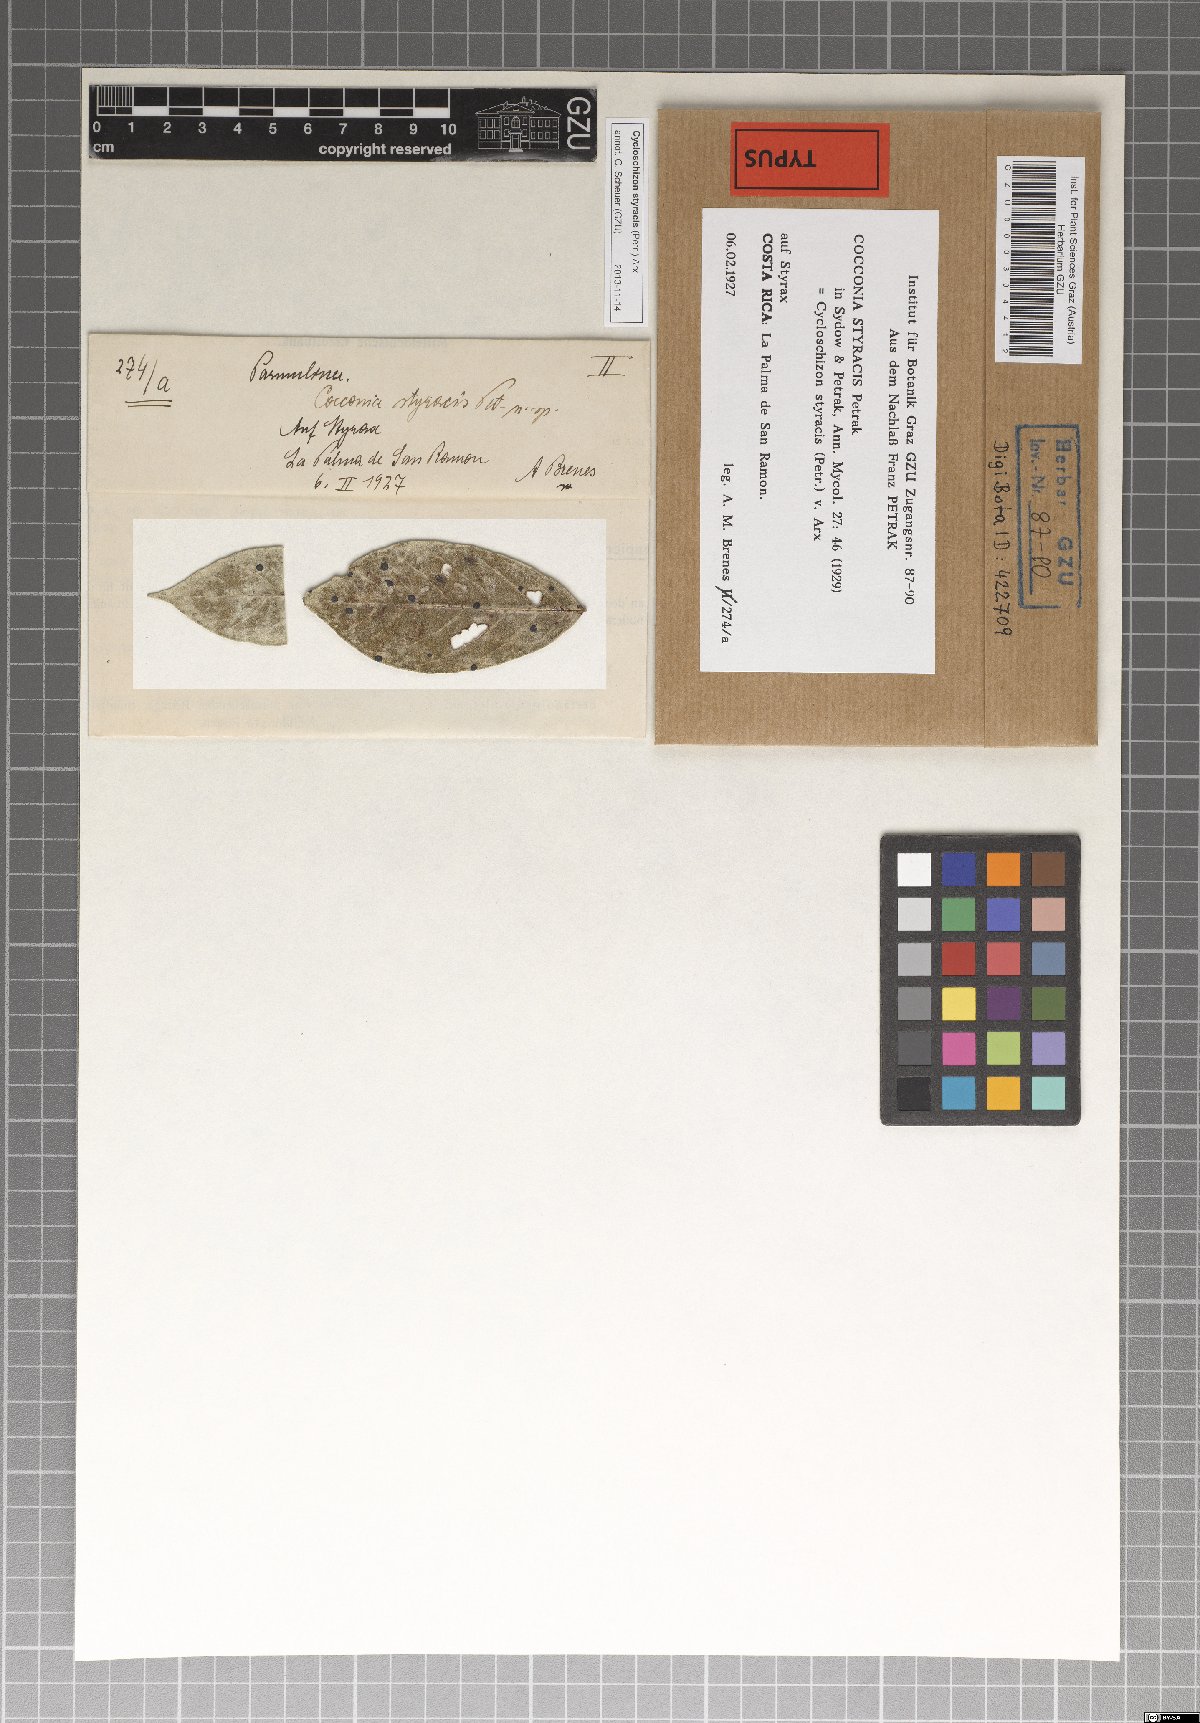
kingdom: Fungi
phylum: Ascomycota
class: Dothideomycetes
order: Asterinales
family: Parmulariaceae
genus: Cycloschizon
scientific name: Cycloschizon styracis
